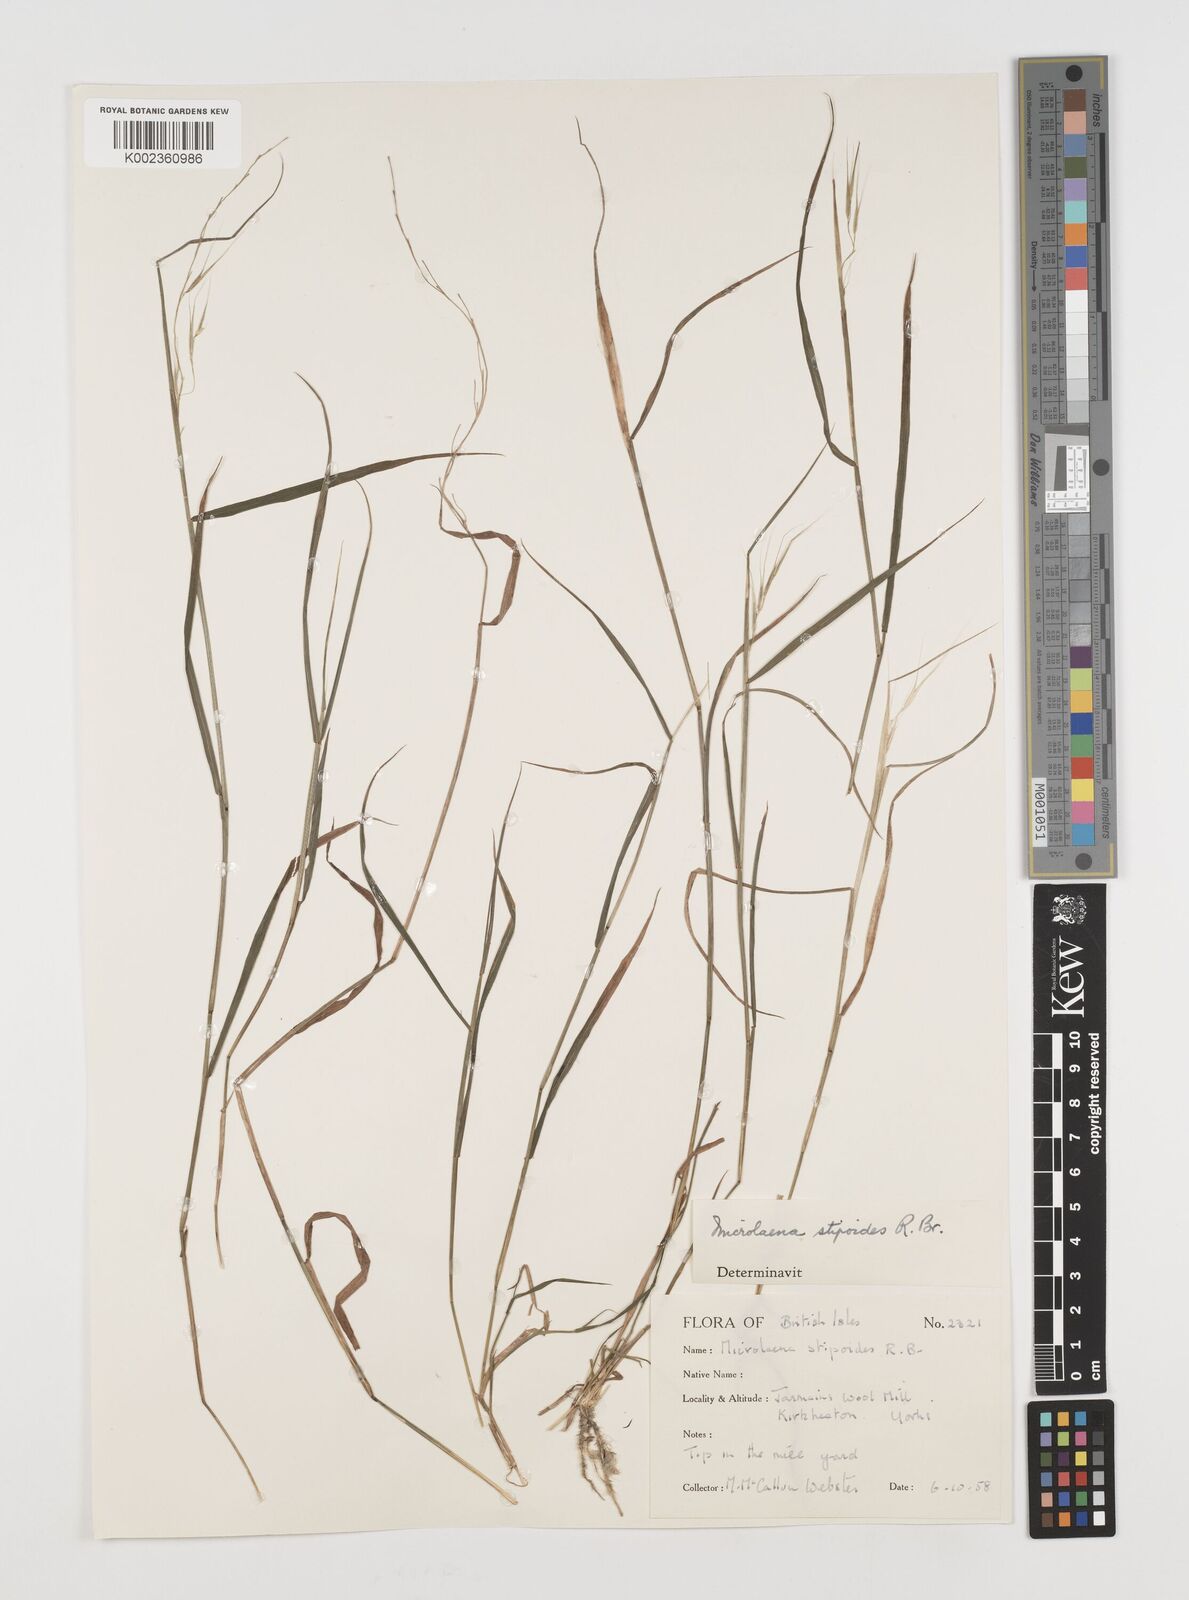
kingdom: Plantae
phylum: Tracheophyta
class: Liliopsida
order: Poales
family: Poaceae
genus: Microlaena
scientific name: Microlaena stipoides
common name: Meadow ricegrass
